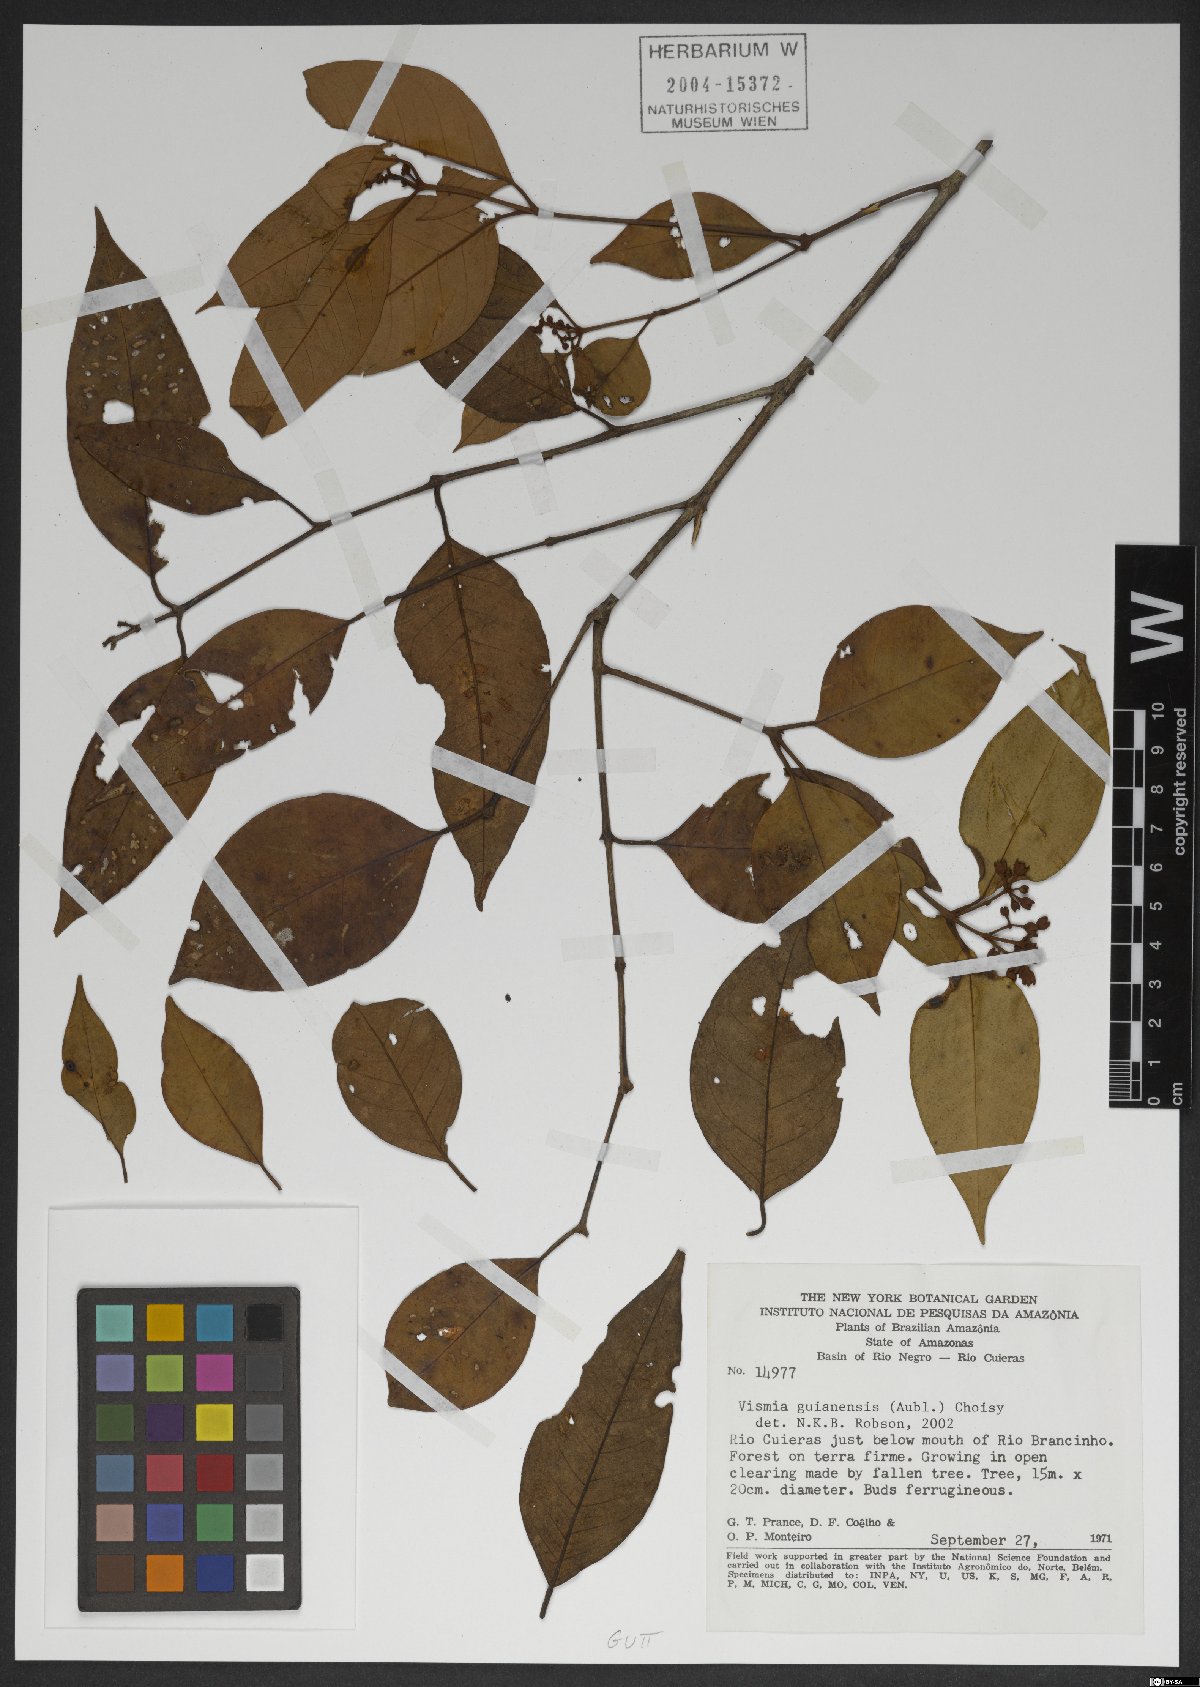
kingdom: Plantae
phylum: Tracheophyta
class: Magnoliopsida
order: Malpighiales
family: Hypericaceae
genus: Vismia
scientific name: Vismia guianensis
